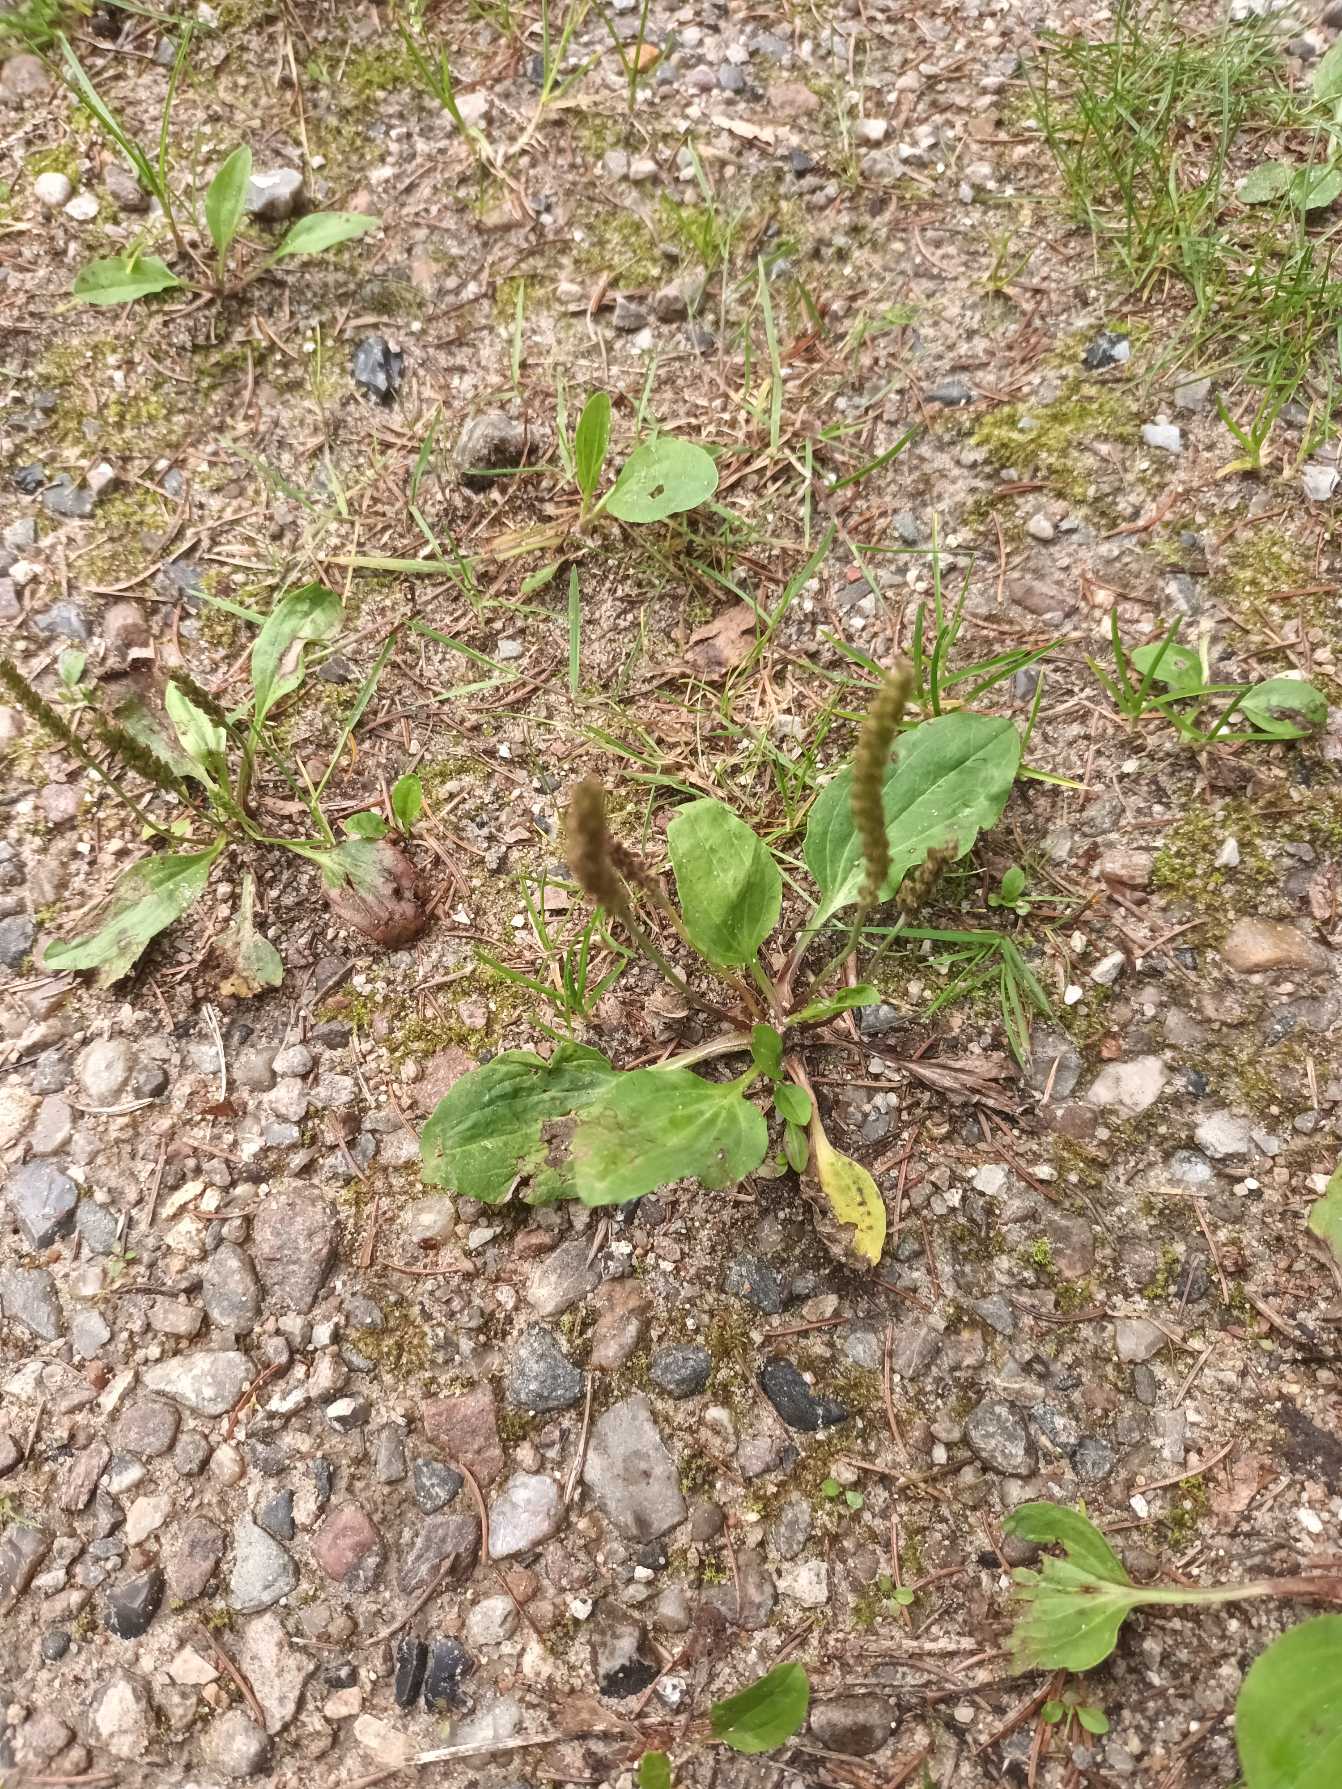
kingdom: Plantae
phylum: Tracheophyta
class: Magnoliopsida
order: Lamiales
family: Plantaginaceae
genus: Plantago
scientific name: Plantago major
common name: Glat vejbred
